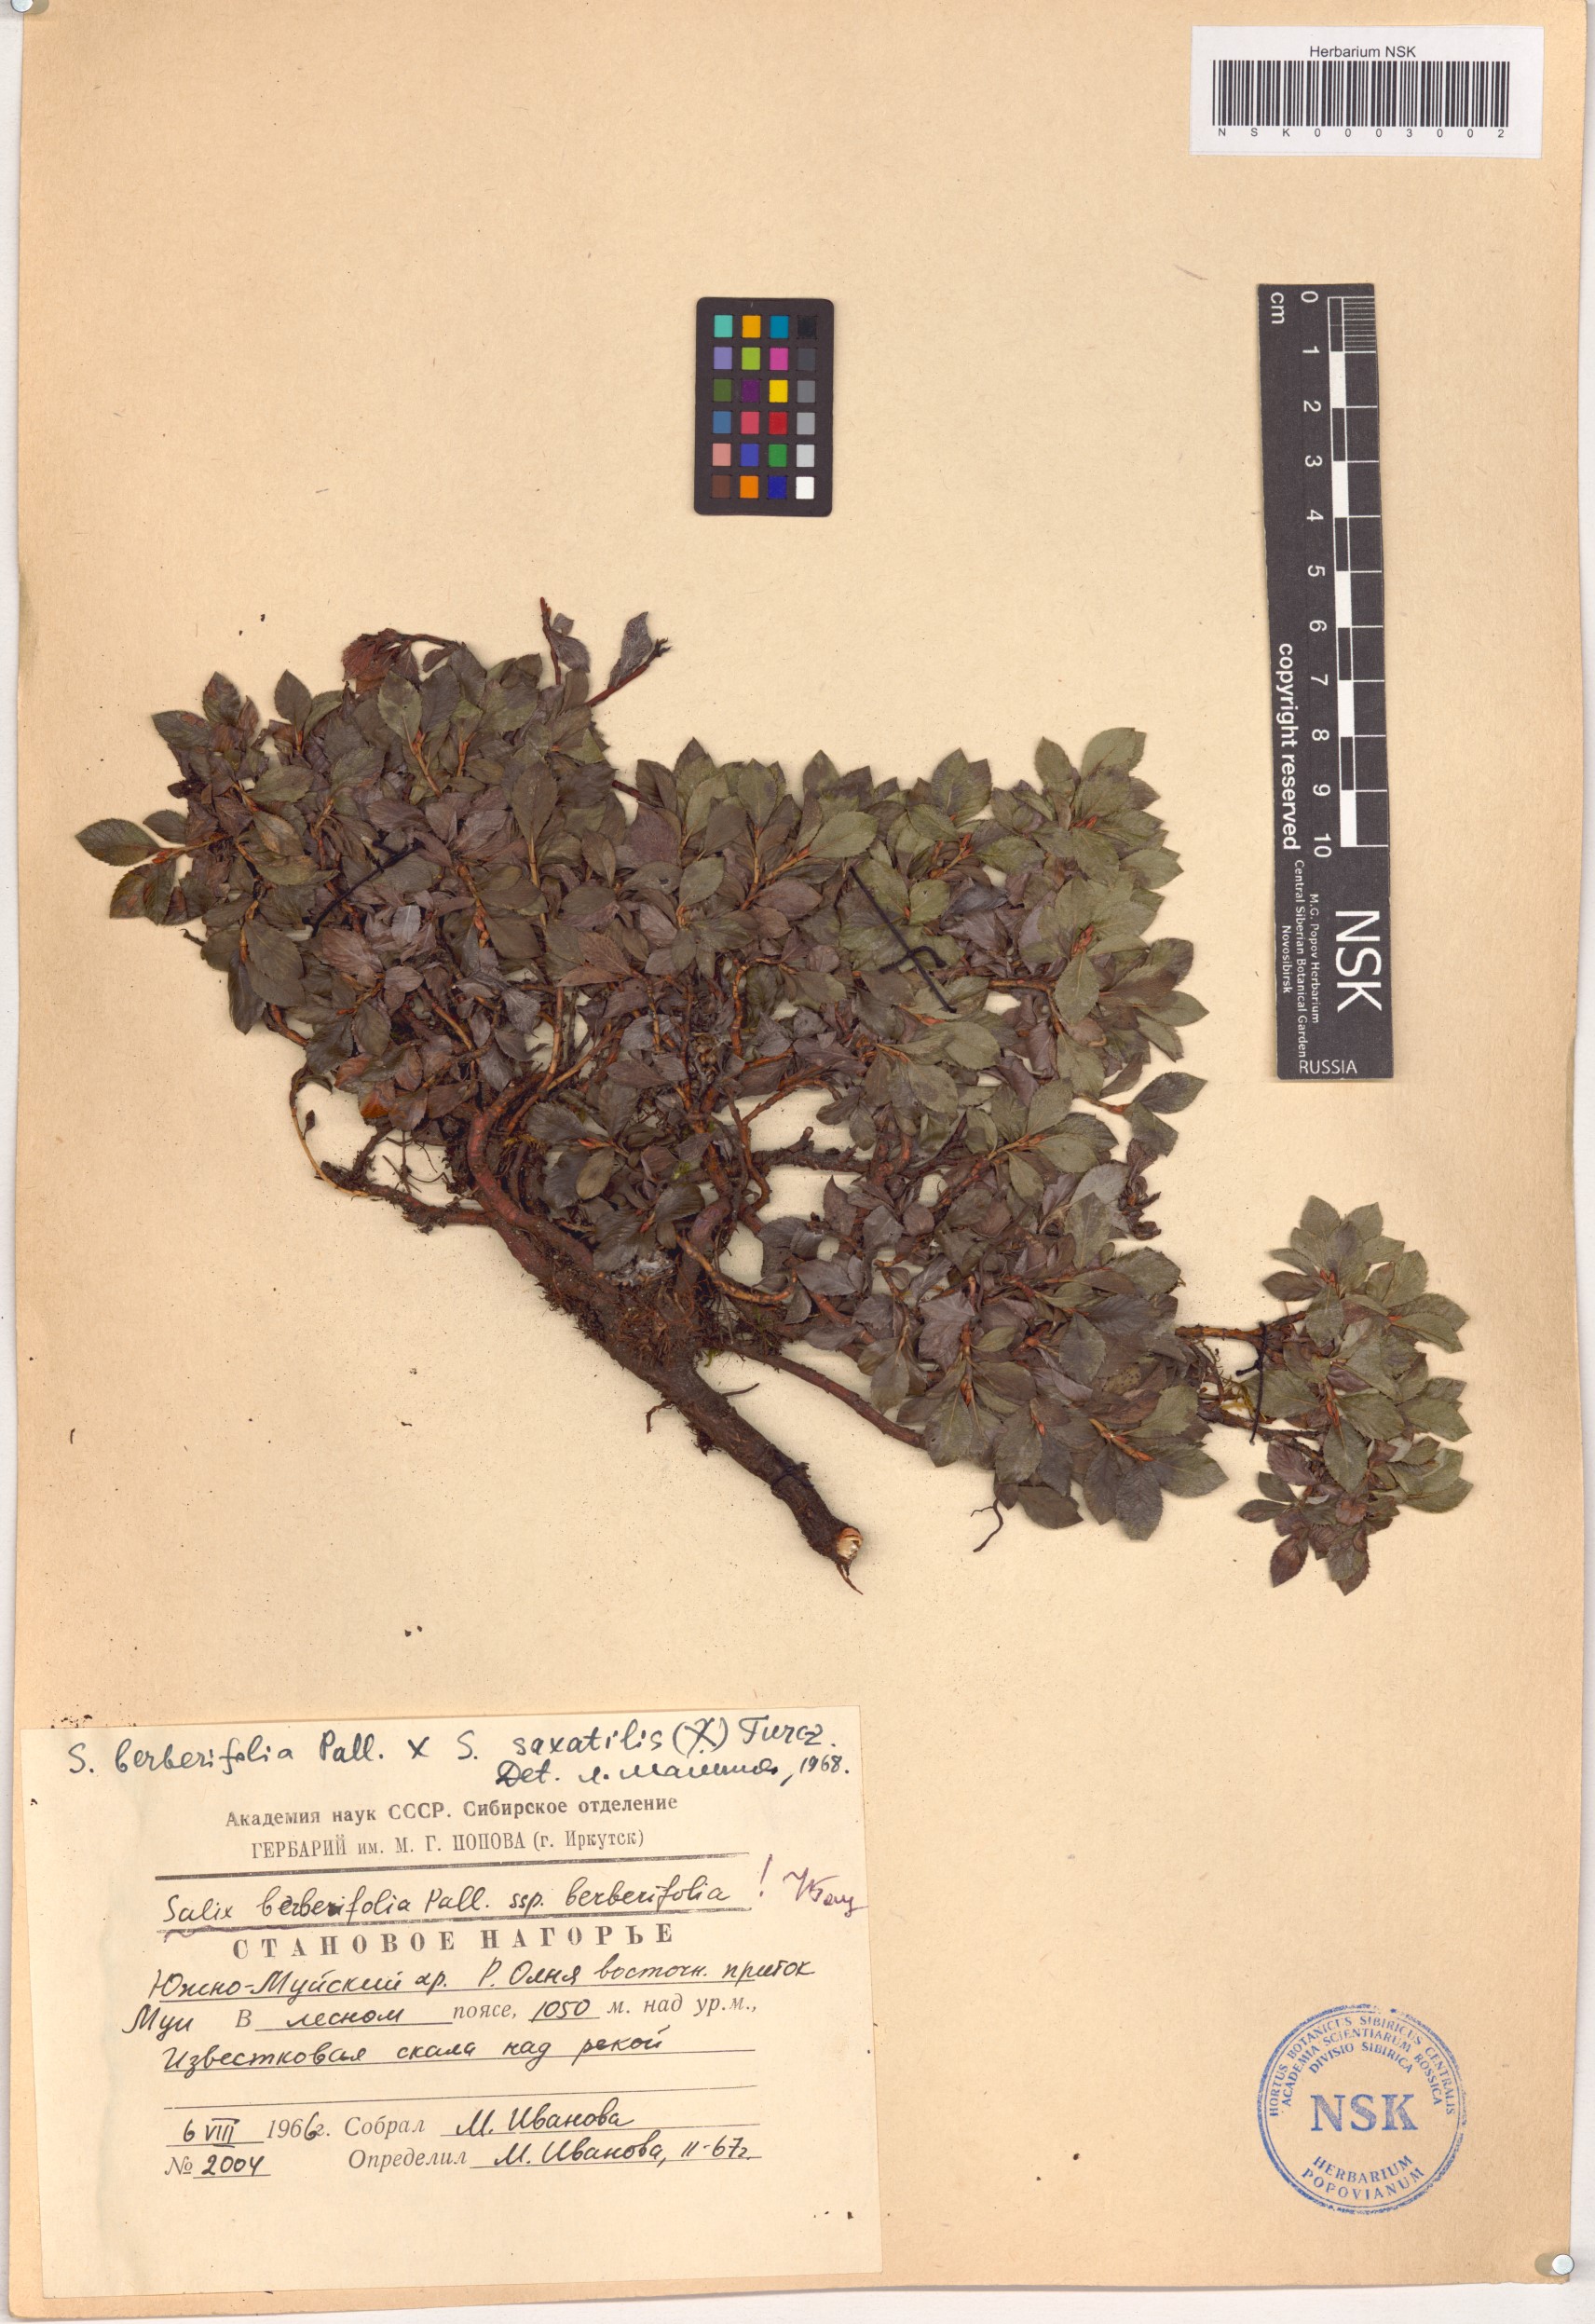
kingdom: Plantae
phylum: Tracheophyta
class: Magnoliopsida
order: Malpighiales
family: Salicaceae
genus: Salix
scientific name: Salix berberifolia
